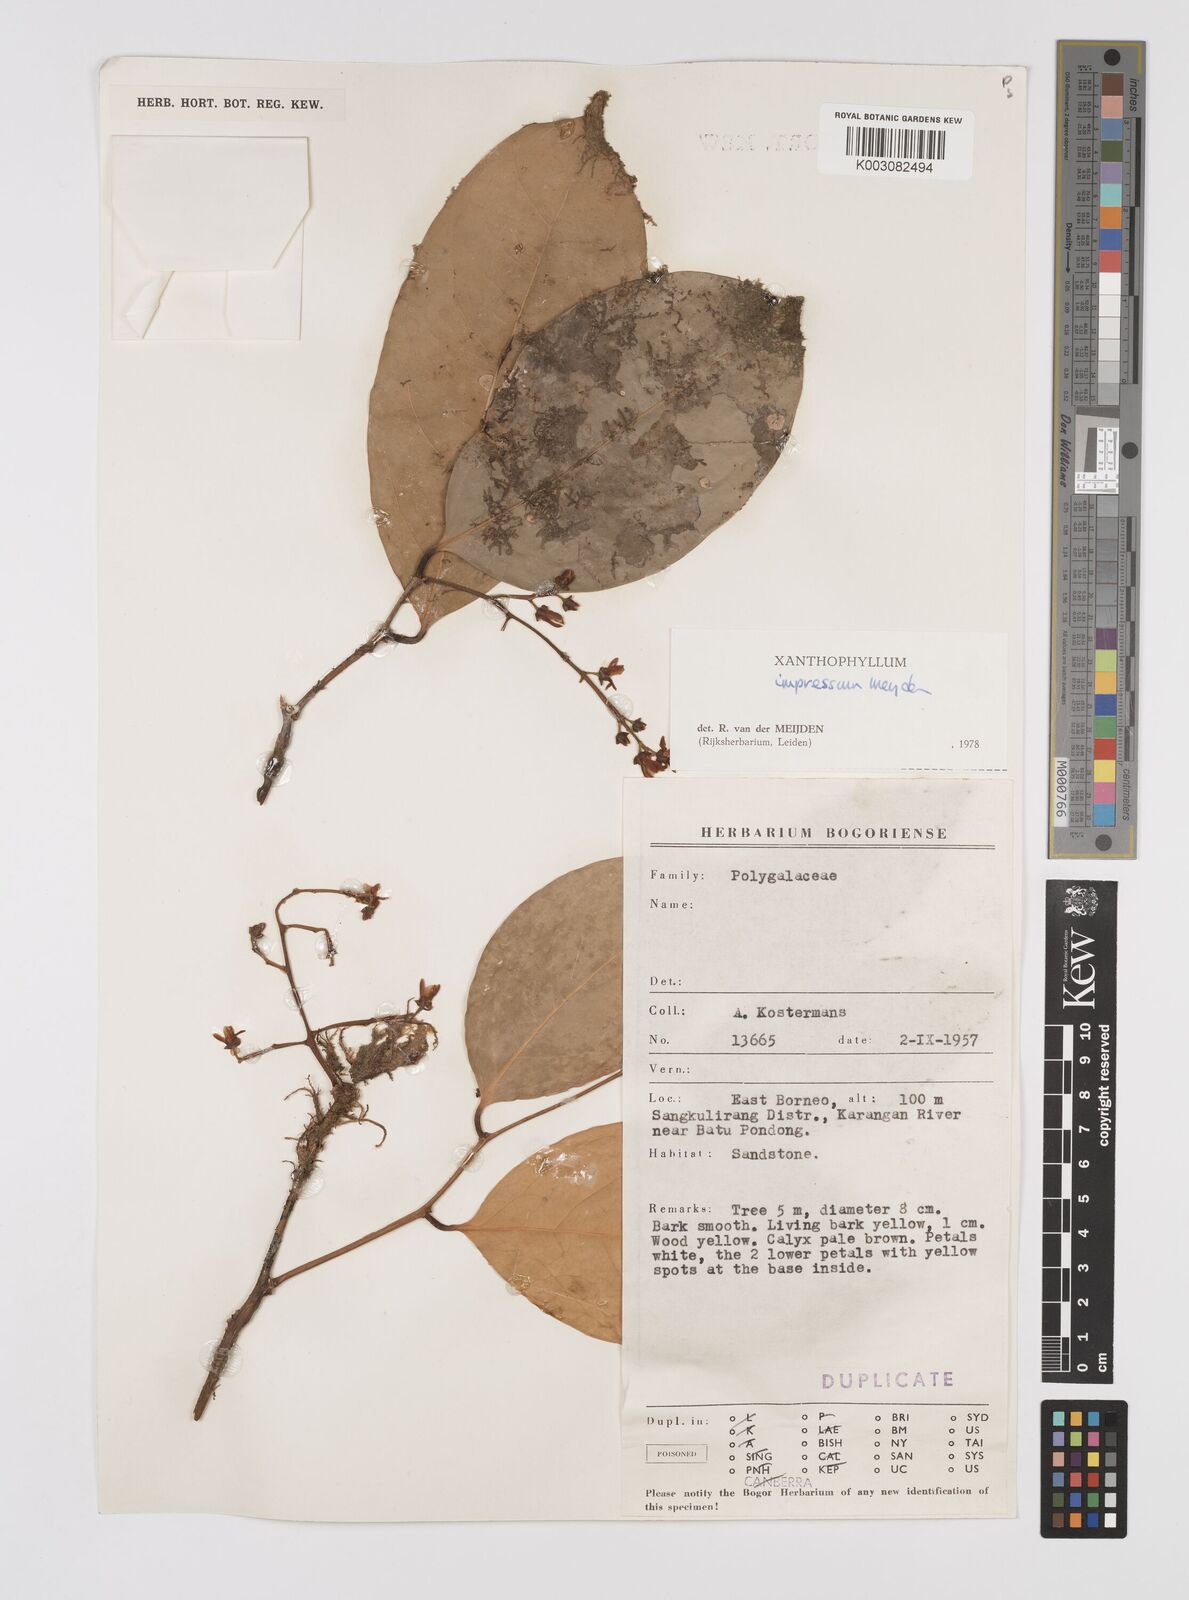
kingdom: Plantae
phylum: Tracheophyta
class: Magnoliopsida
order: Fabales
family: Polygalaceae
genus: Xanthophyllum
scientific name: Xanthophyllum impressum
